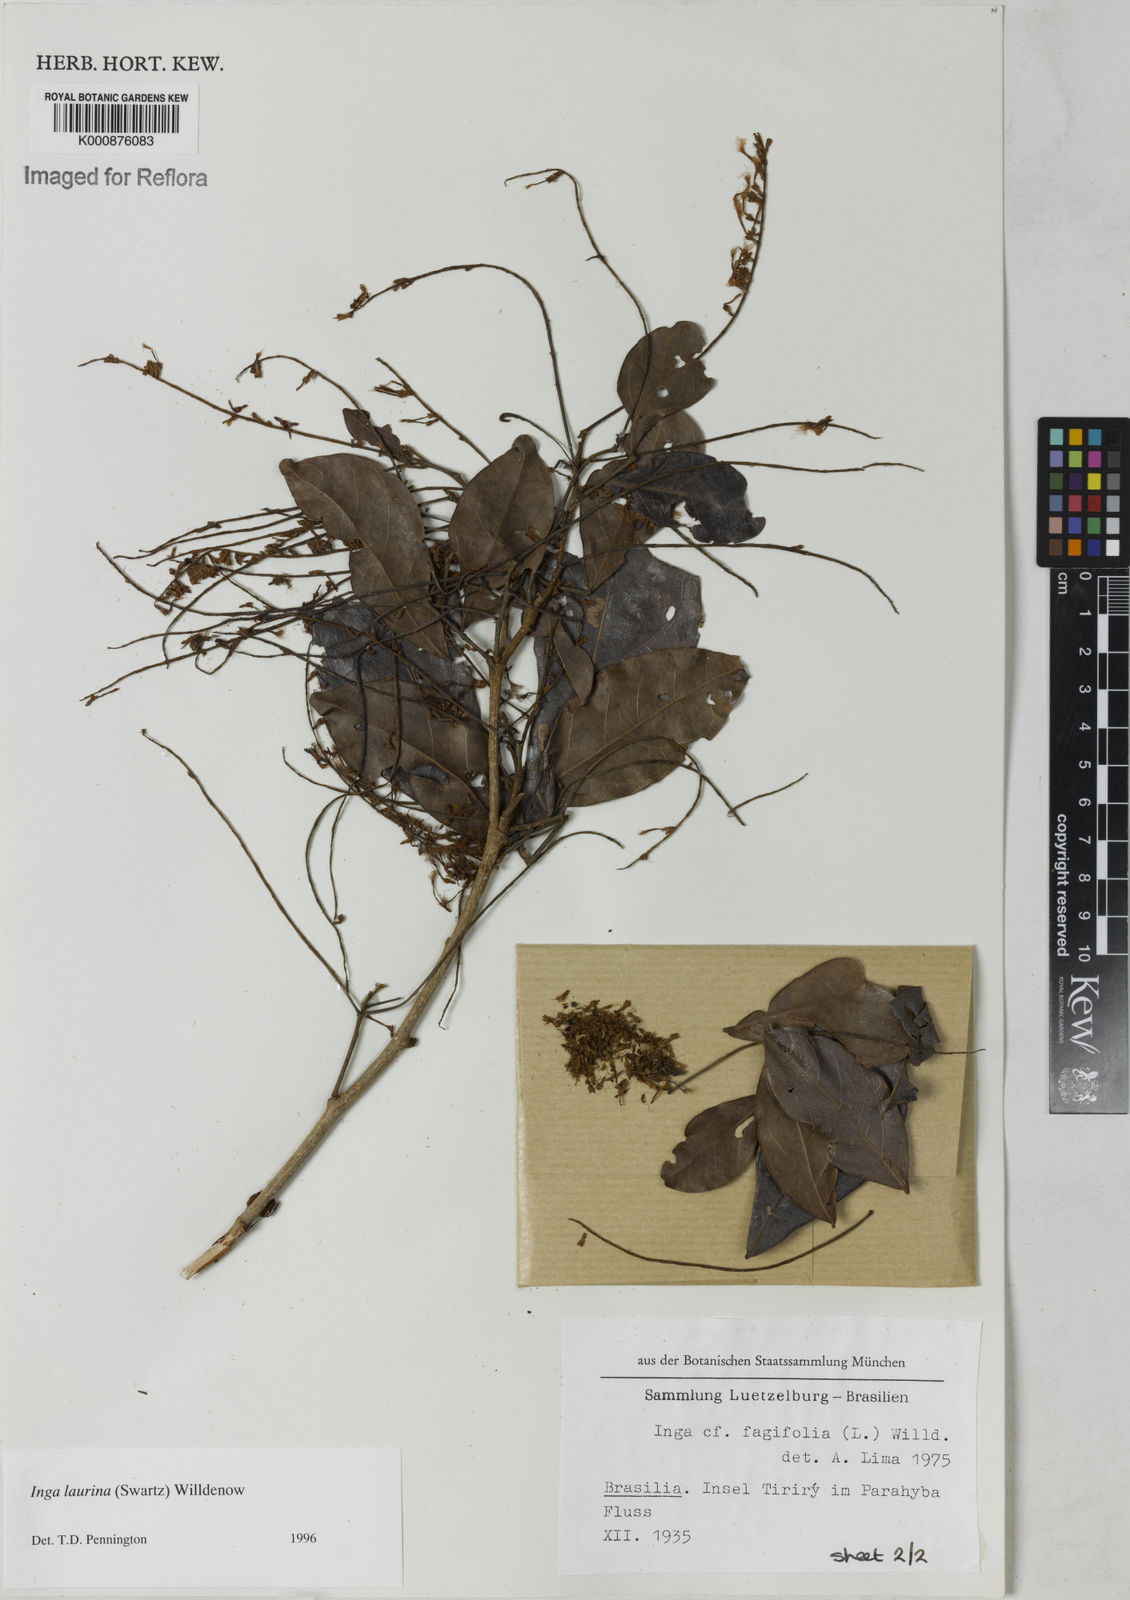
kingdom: Plantae
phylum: Tracheophyta
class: Magnoliopsida
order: Fabales
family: Fabaceae
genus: Inga
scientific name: Inga laurina
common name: Red wood
